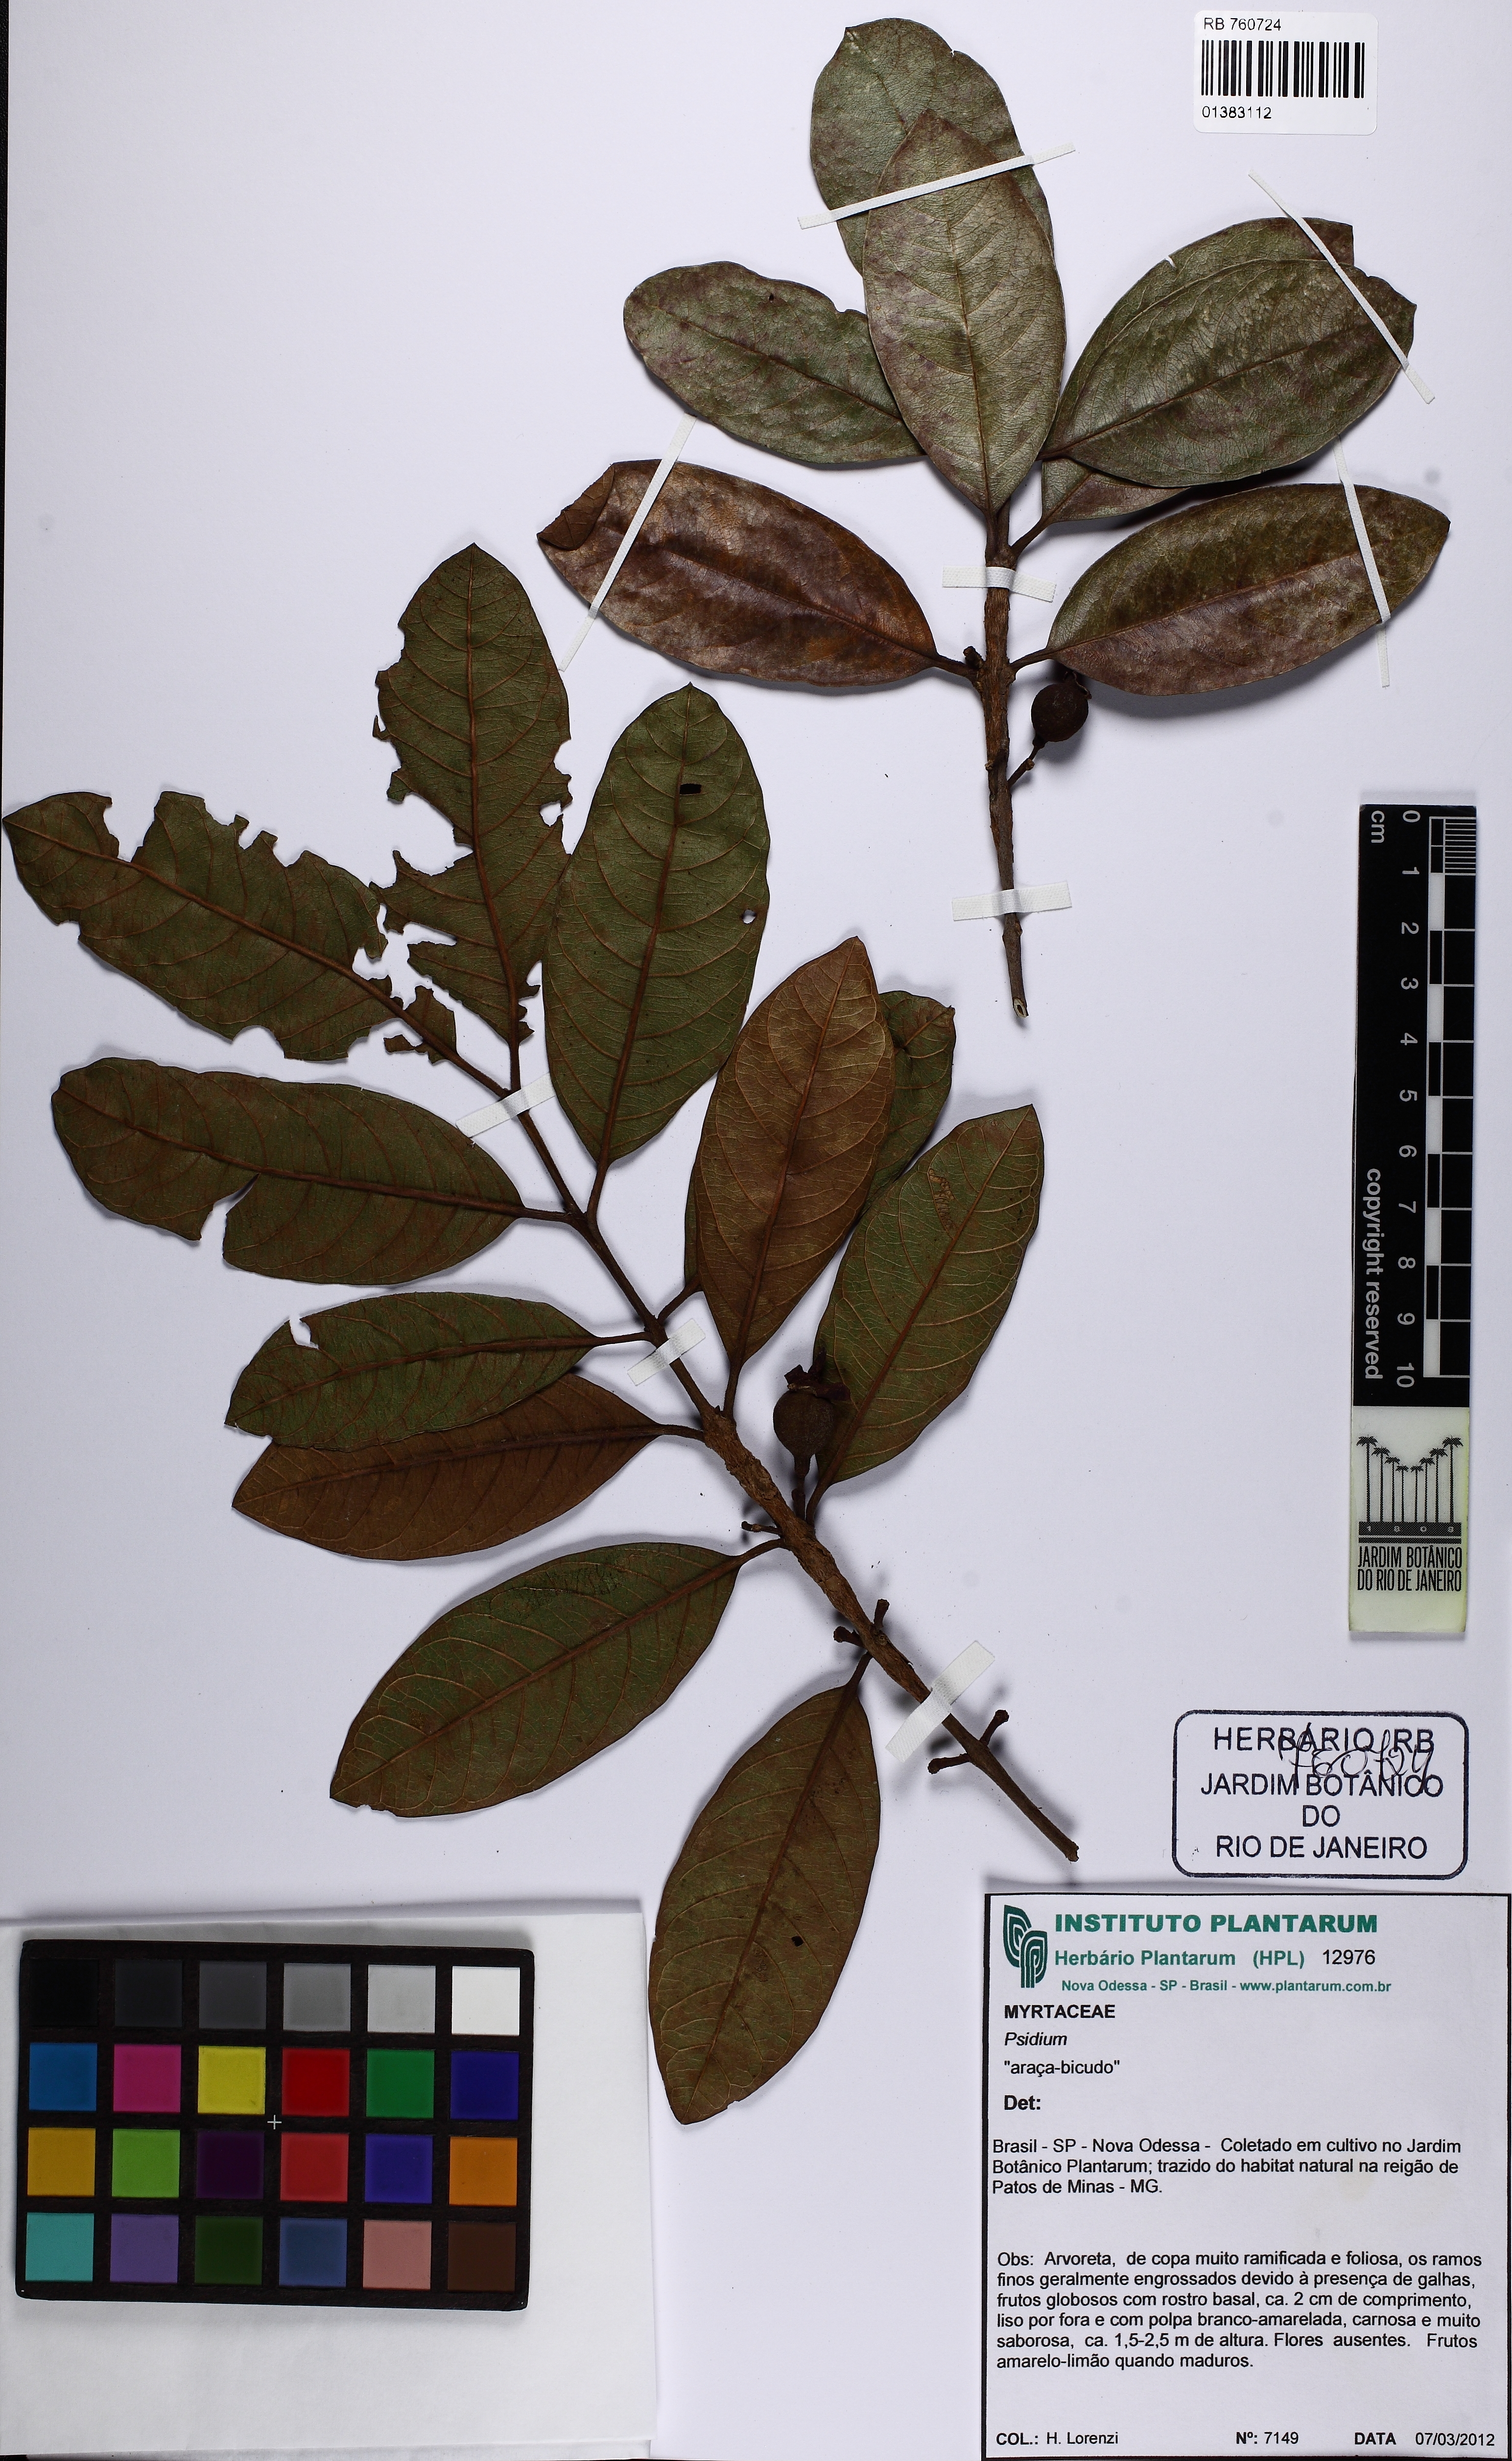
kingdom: Plantae
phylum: Tracheophyta
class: Magnoliopsida
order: Myrtales
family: Myrtaceae
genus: Psidium
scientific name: Psidium guyanense
